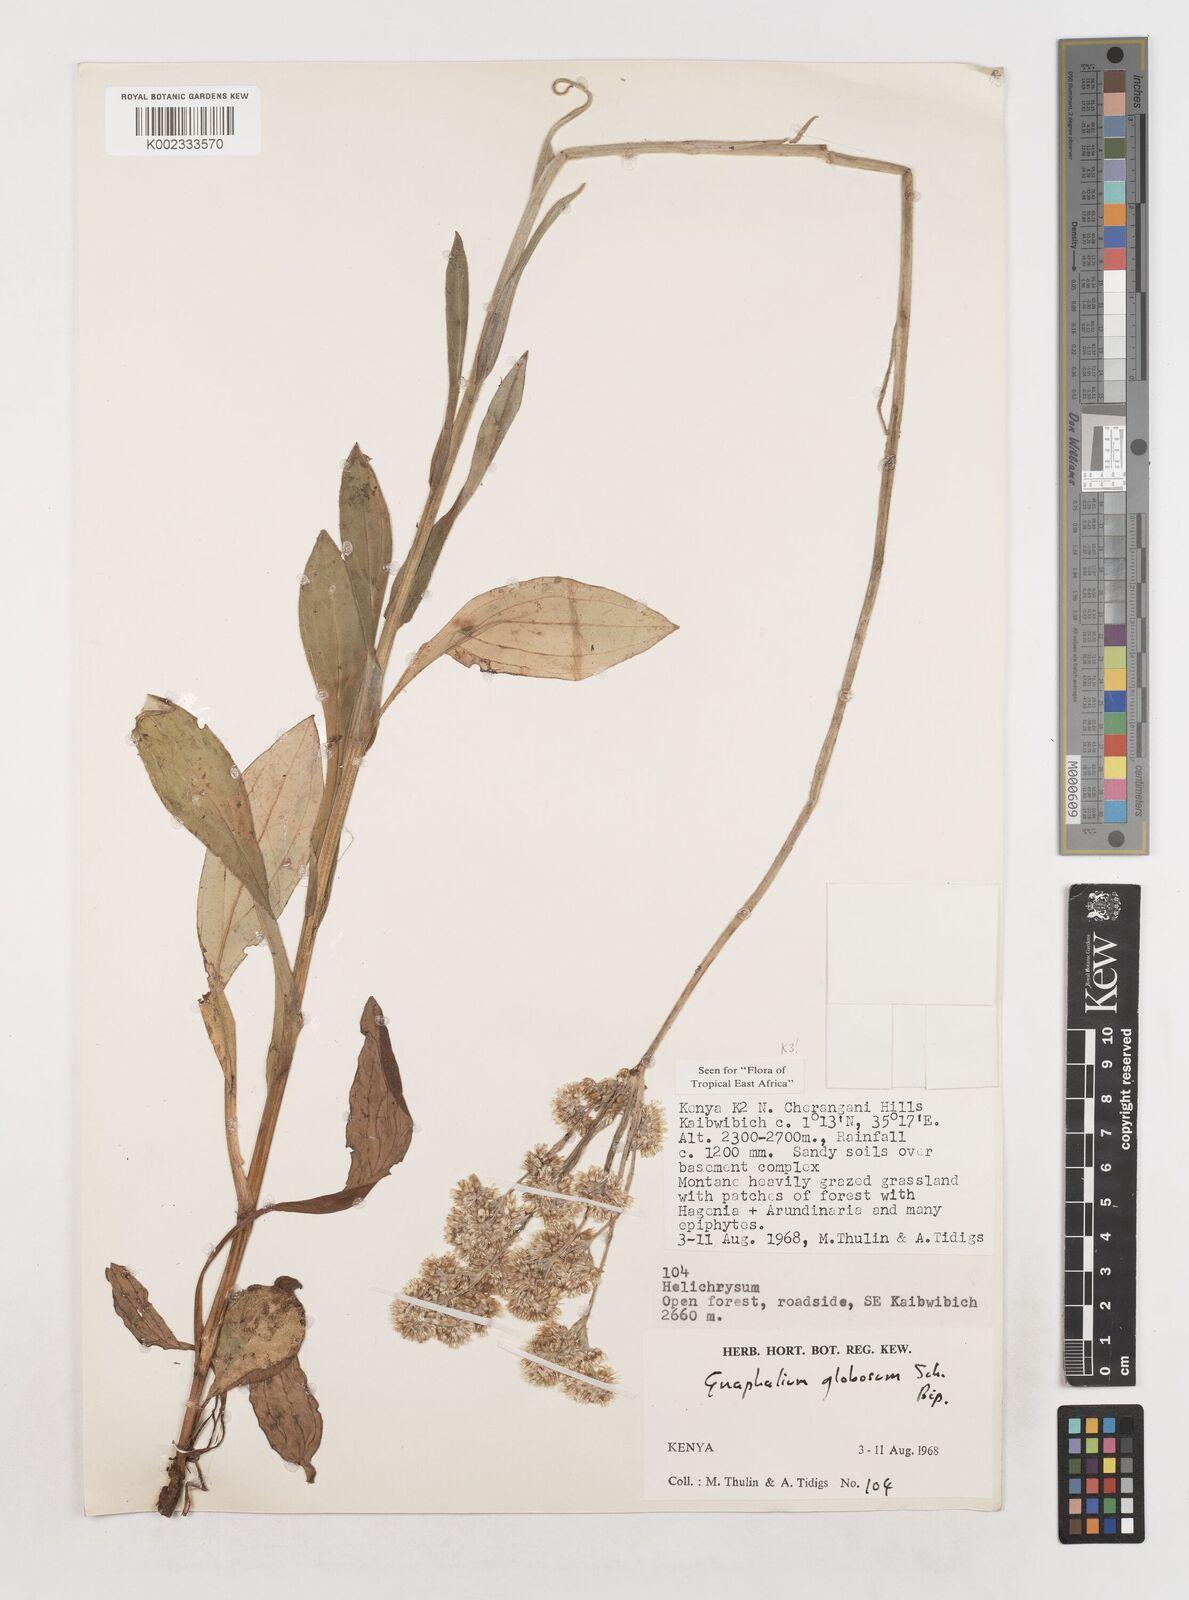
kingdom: Plantae
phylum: Tracheophyta
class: Magnoliopsida
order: Asterales
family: Asteraceae
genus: Helichrysum
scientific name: Helichrysum globosum
